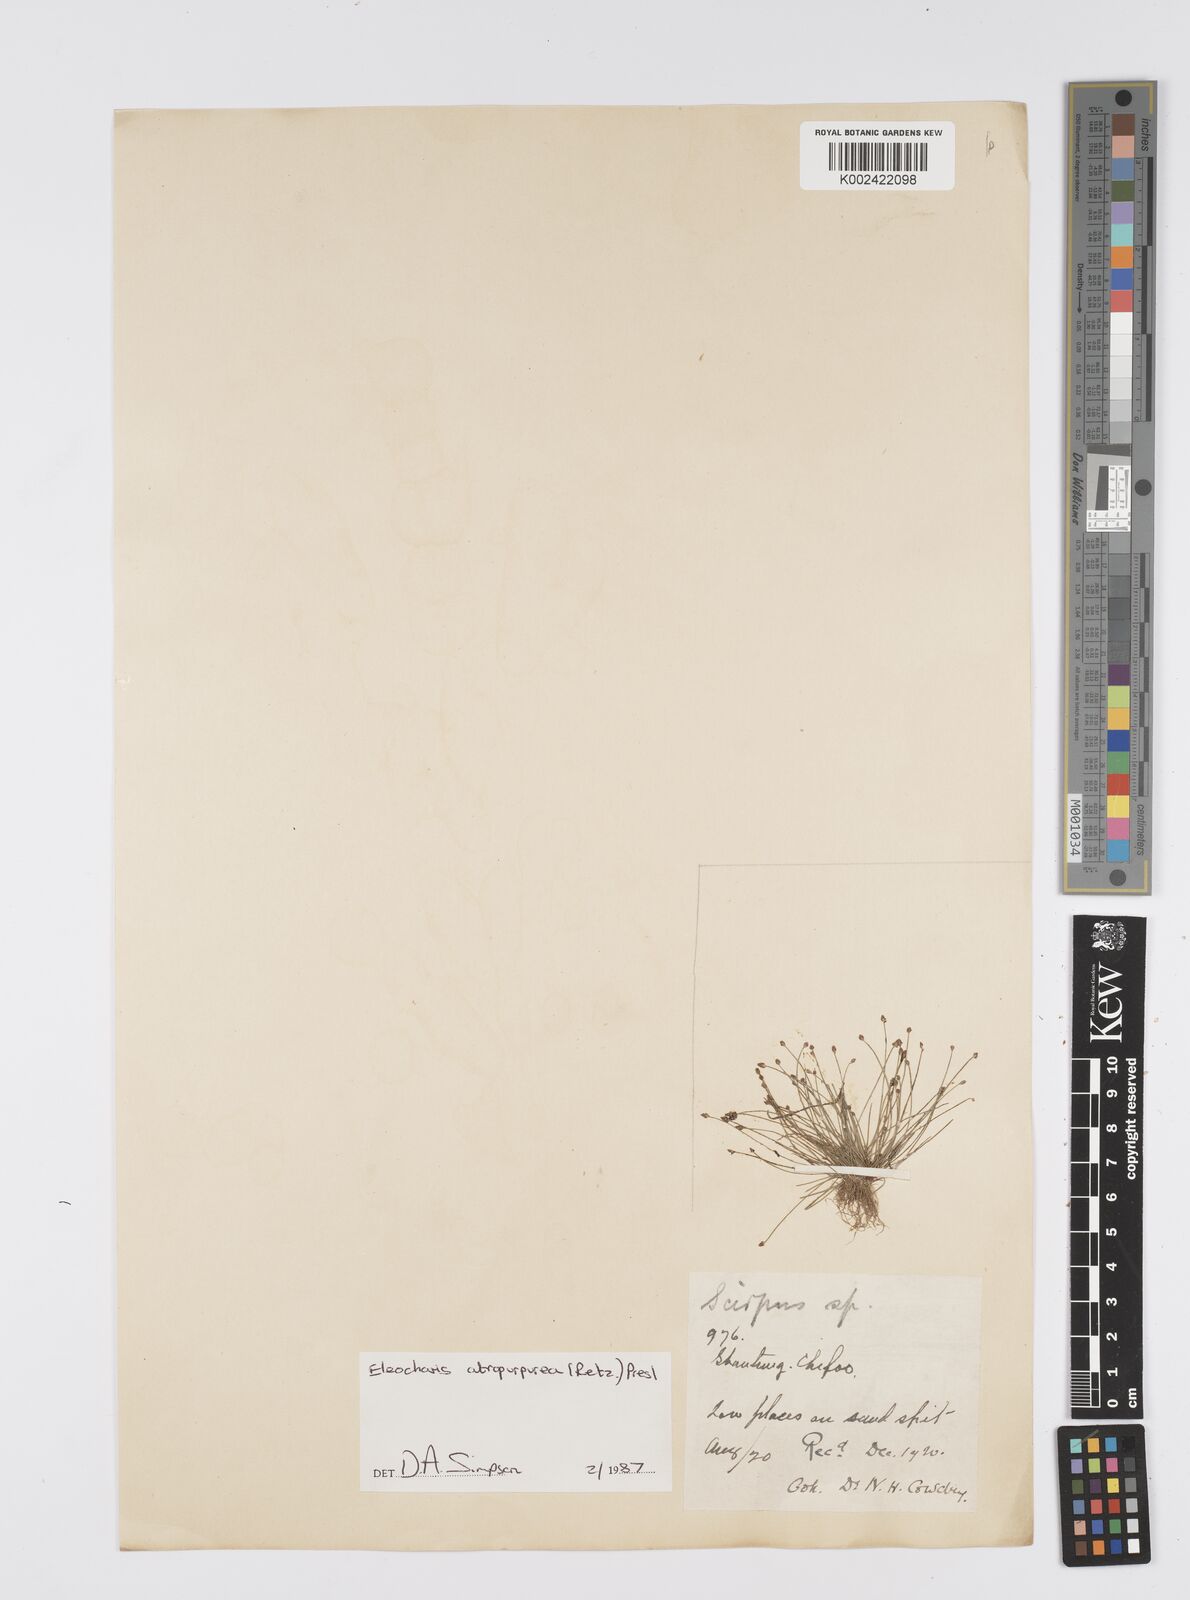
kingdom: Plantae
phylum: Tracheophyta
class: Liliopsida
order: Poales
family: Cyperaceae
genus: Eleocharis
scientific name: Eleocharis atropurpurea
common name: Purple spikerush
